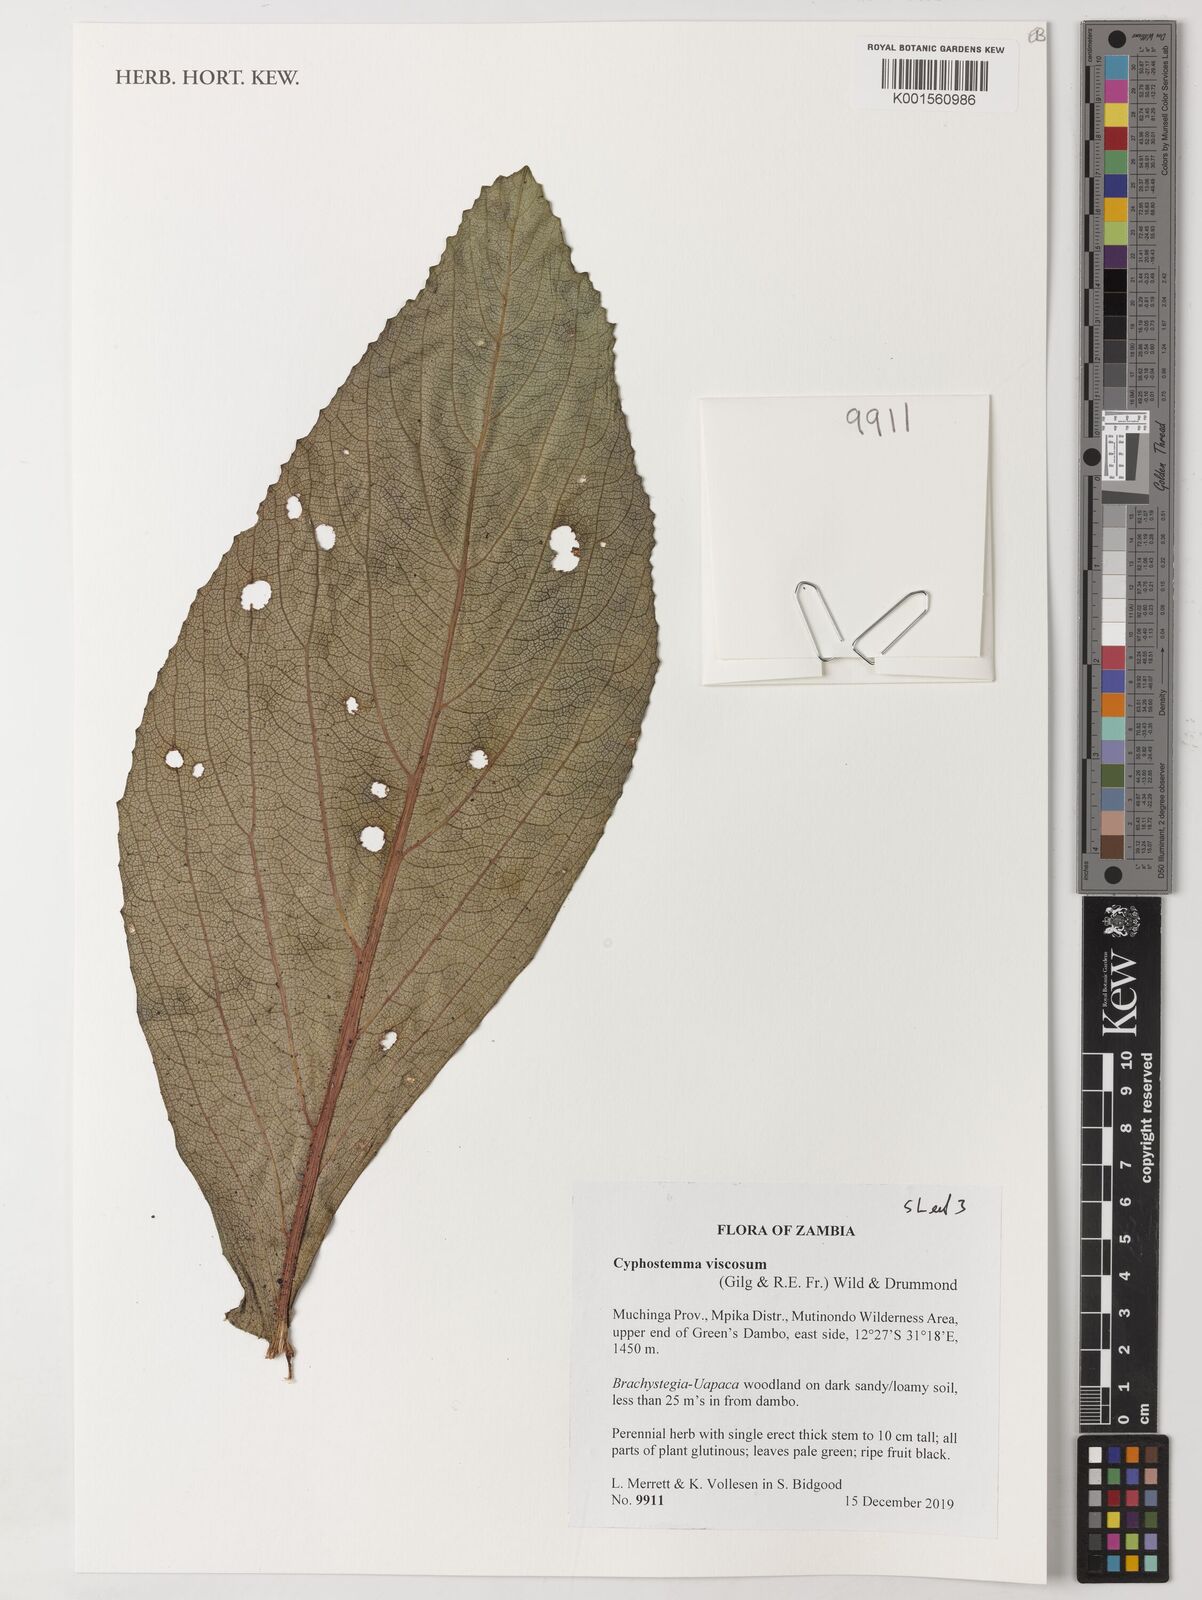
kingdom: Plantae
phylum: Tracheophyta
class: Magnoliopsida
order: Vitales
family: Vitaceae
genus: Cyphostemma
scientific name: Cyphostemma viscosum
